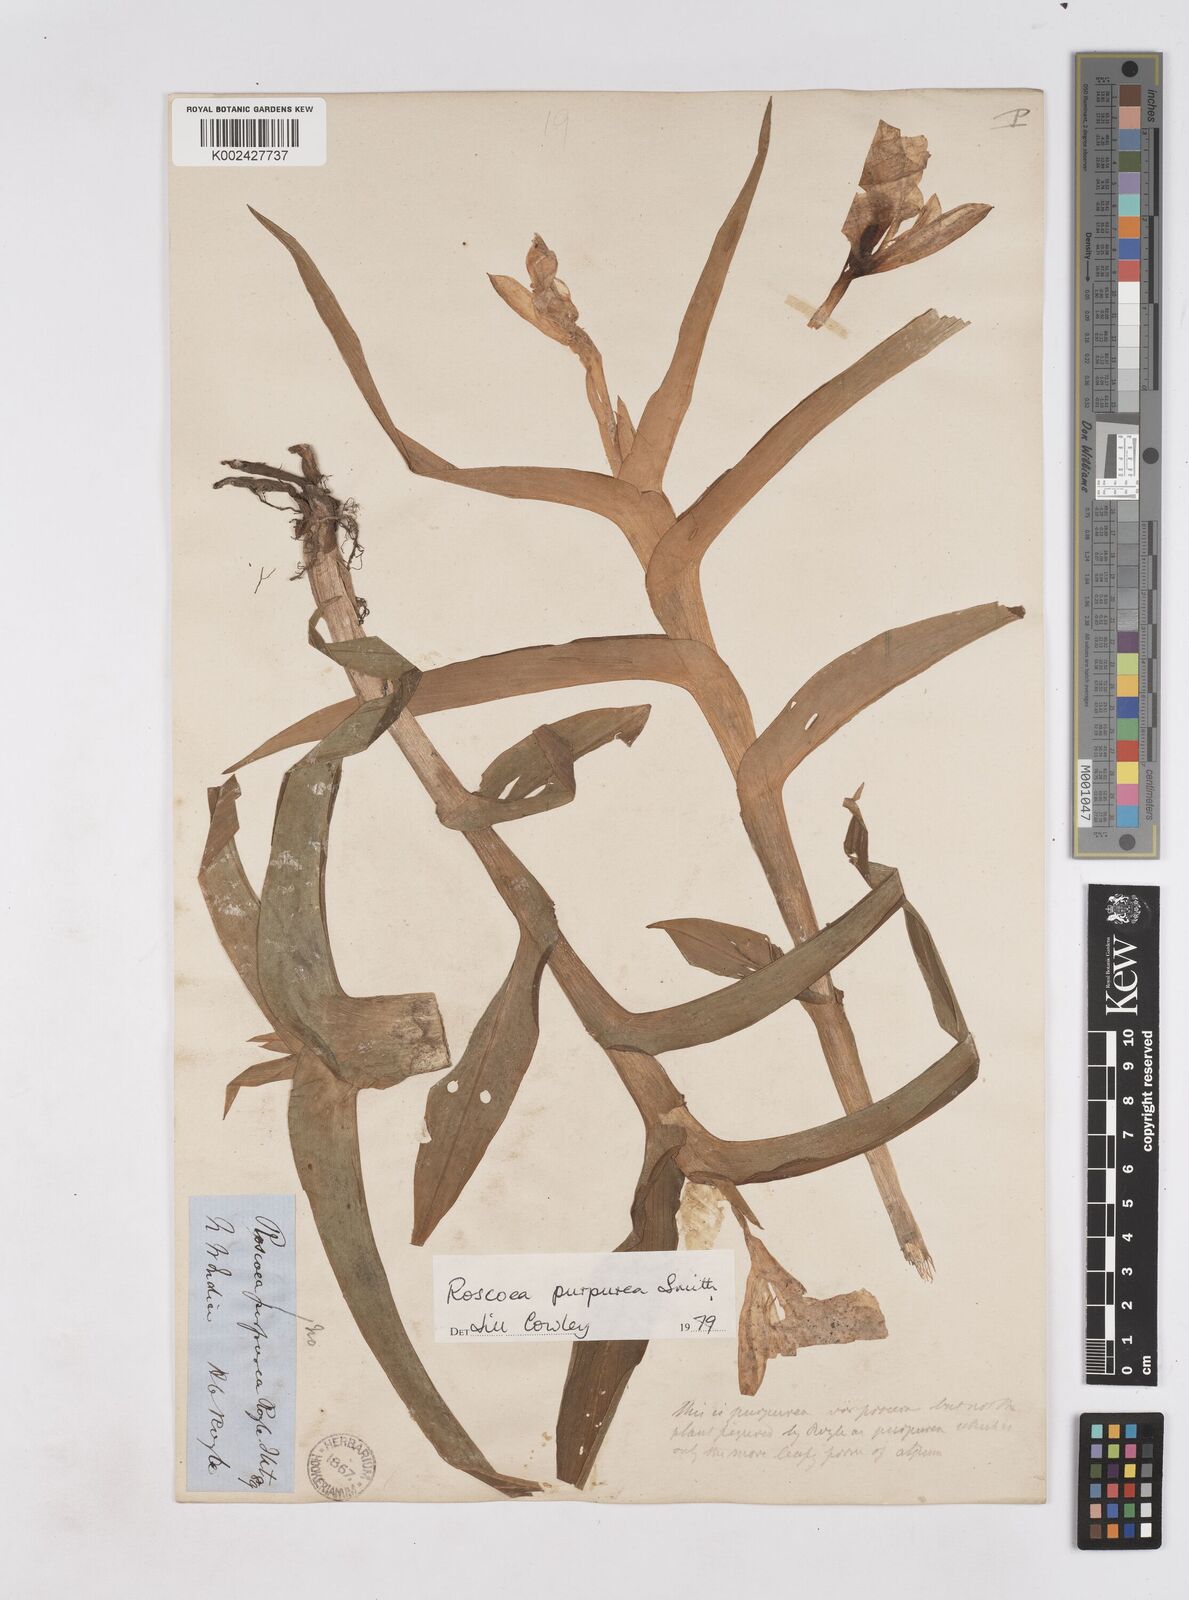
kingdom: Plantae
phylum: Tracheophyta
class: Liliopsida
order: Zingiberales
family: Zingiberaceae
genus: Roscoea
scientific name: Roscoea purpurea
